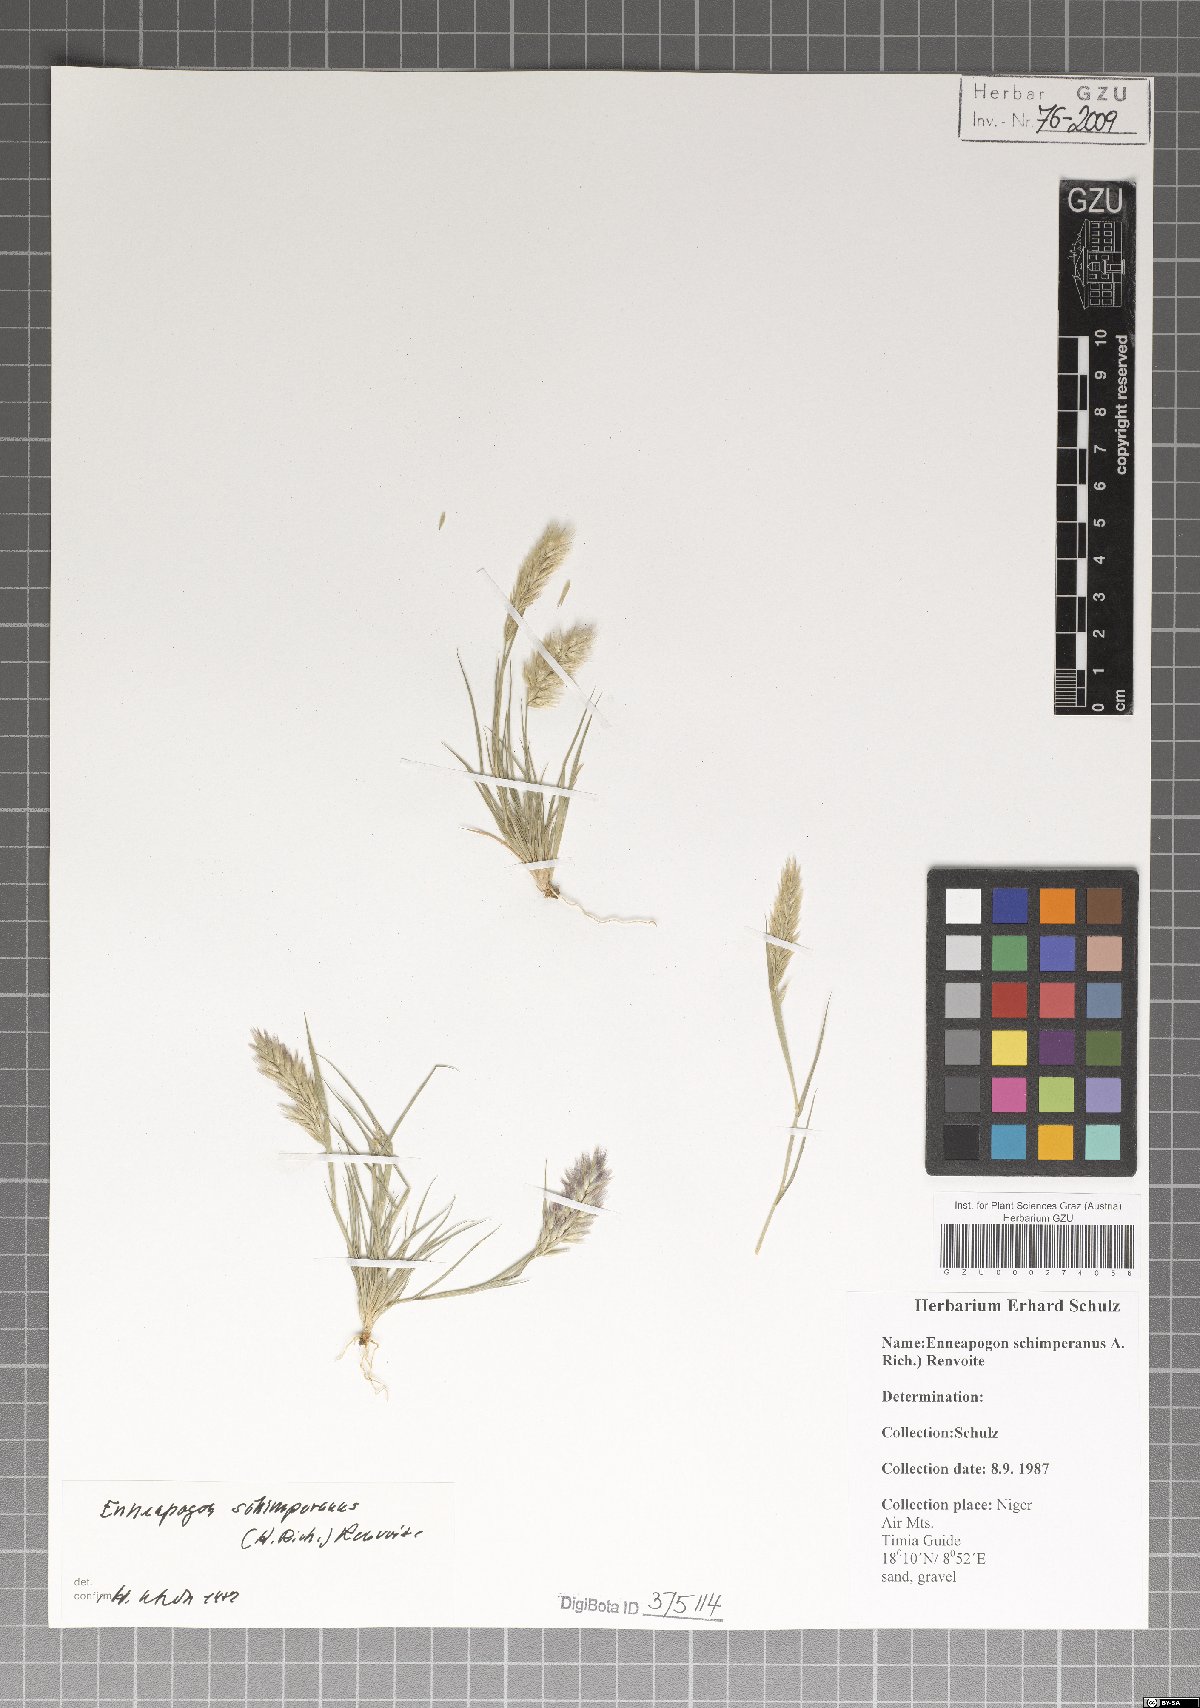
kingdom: Plantae
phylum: Tracheophyta
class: Liliopsida
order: Poales
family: Poaceae
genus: Enneapogon
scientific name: Enneapogon persicus
